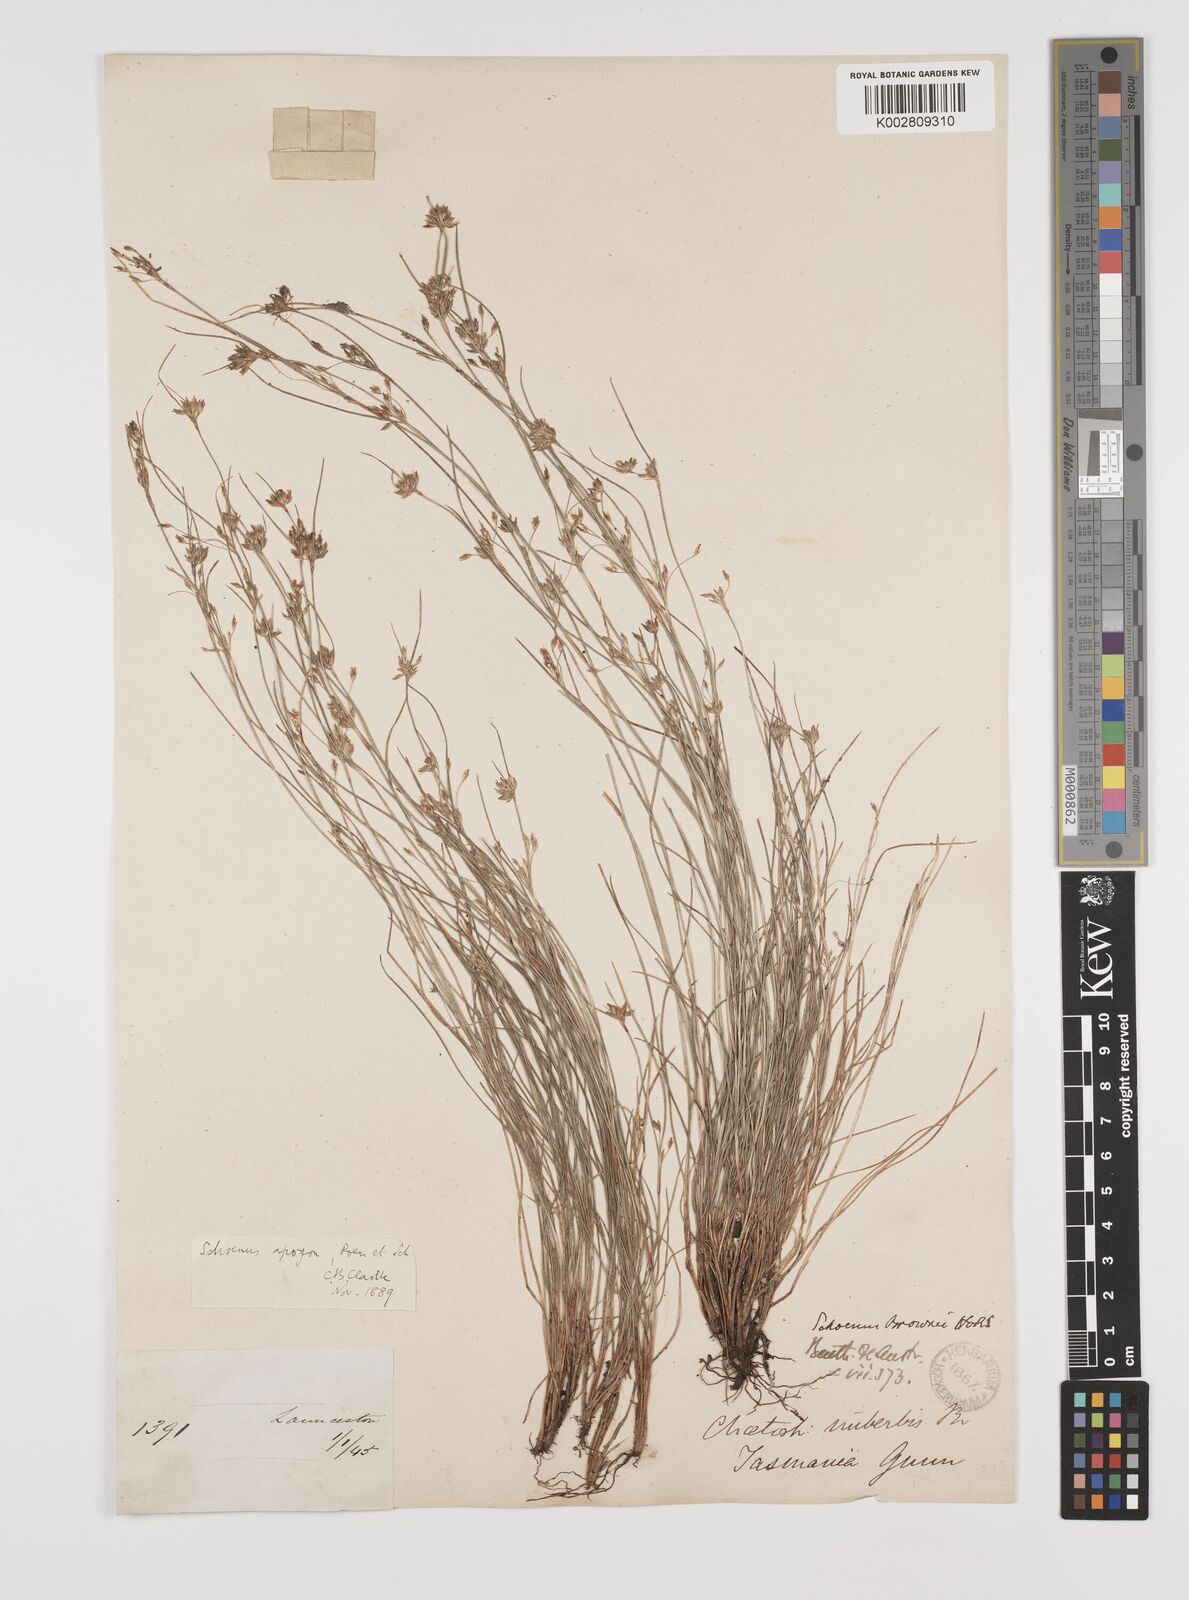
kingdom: Plantae
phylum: Tracheophyta
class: Liliopsida
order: Poales
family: Cyperaceae
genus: Schoenus
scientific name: Schoenus apogon
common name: Smooth bogrush
